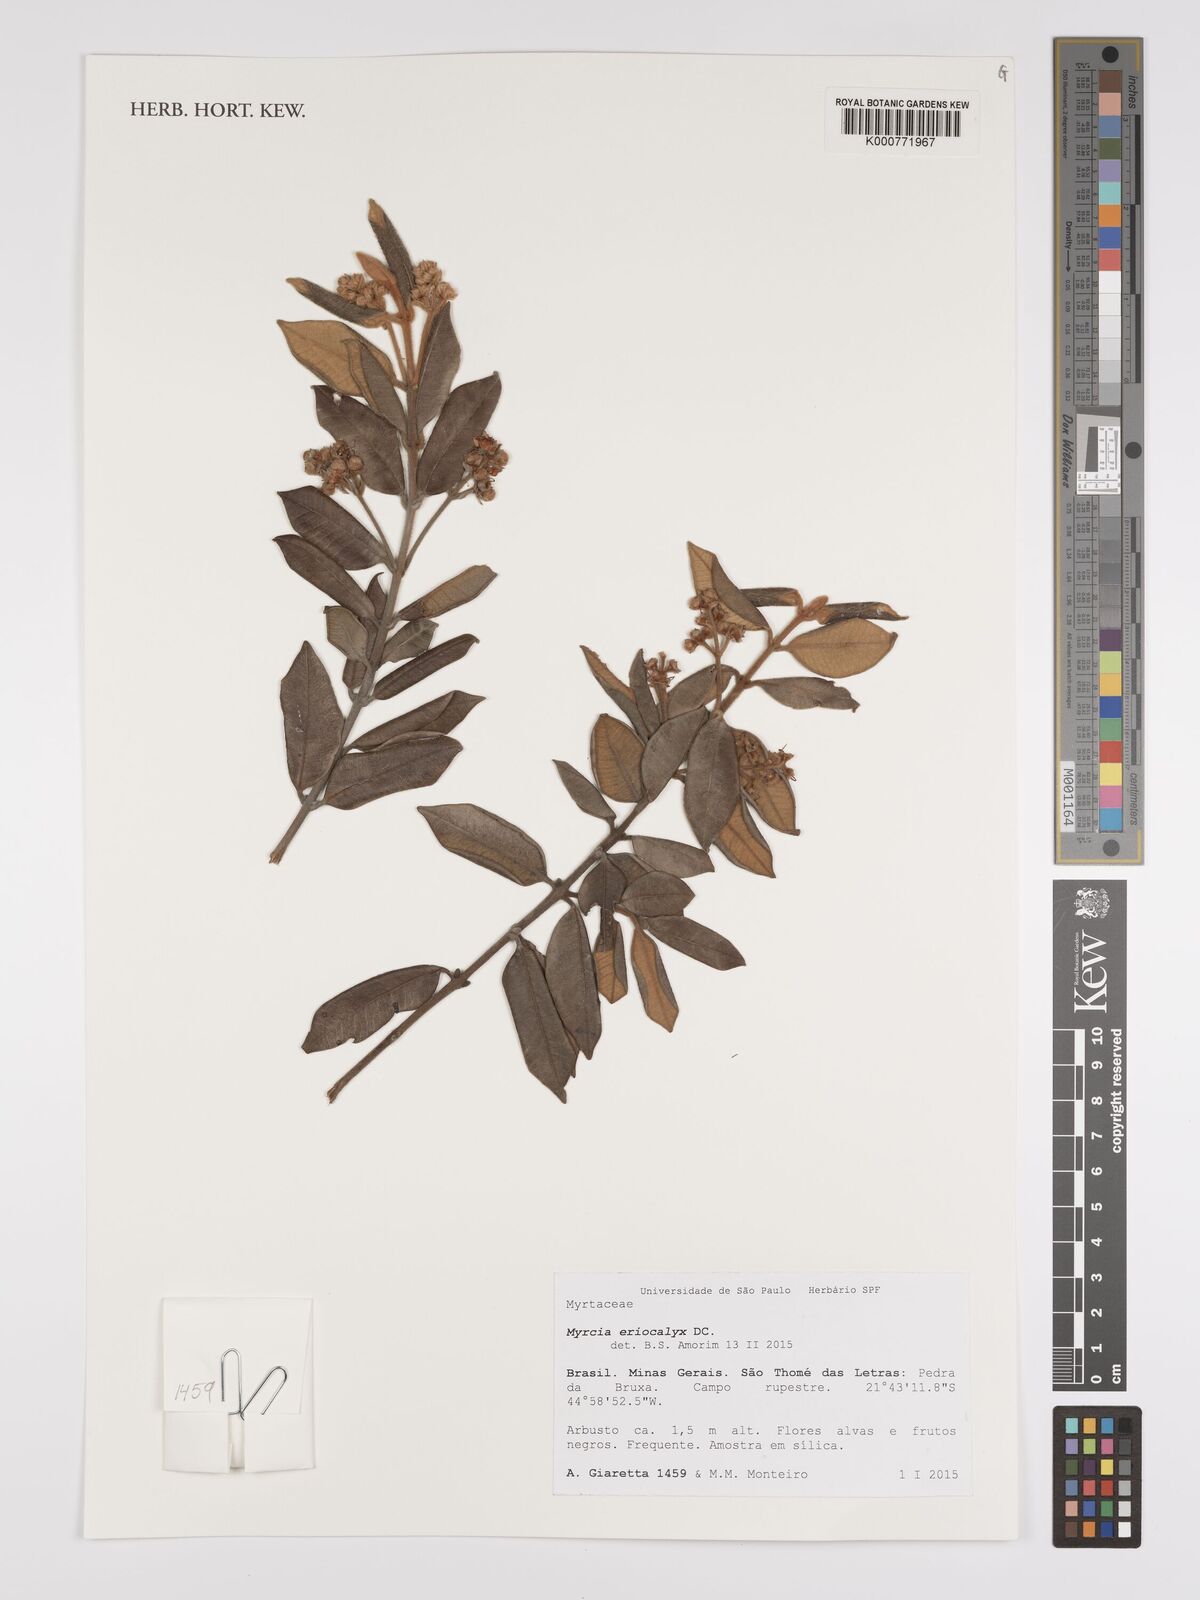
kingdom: Plantae
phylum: Tracheophyta
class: Magnoliopsida
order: Myrtales
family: Myrtaceae
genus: Myrcia
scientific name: Myrcia eriocalyx
